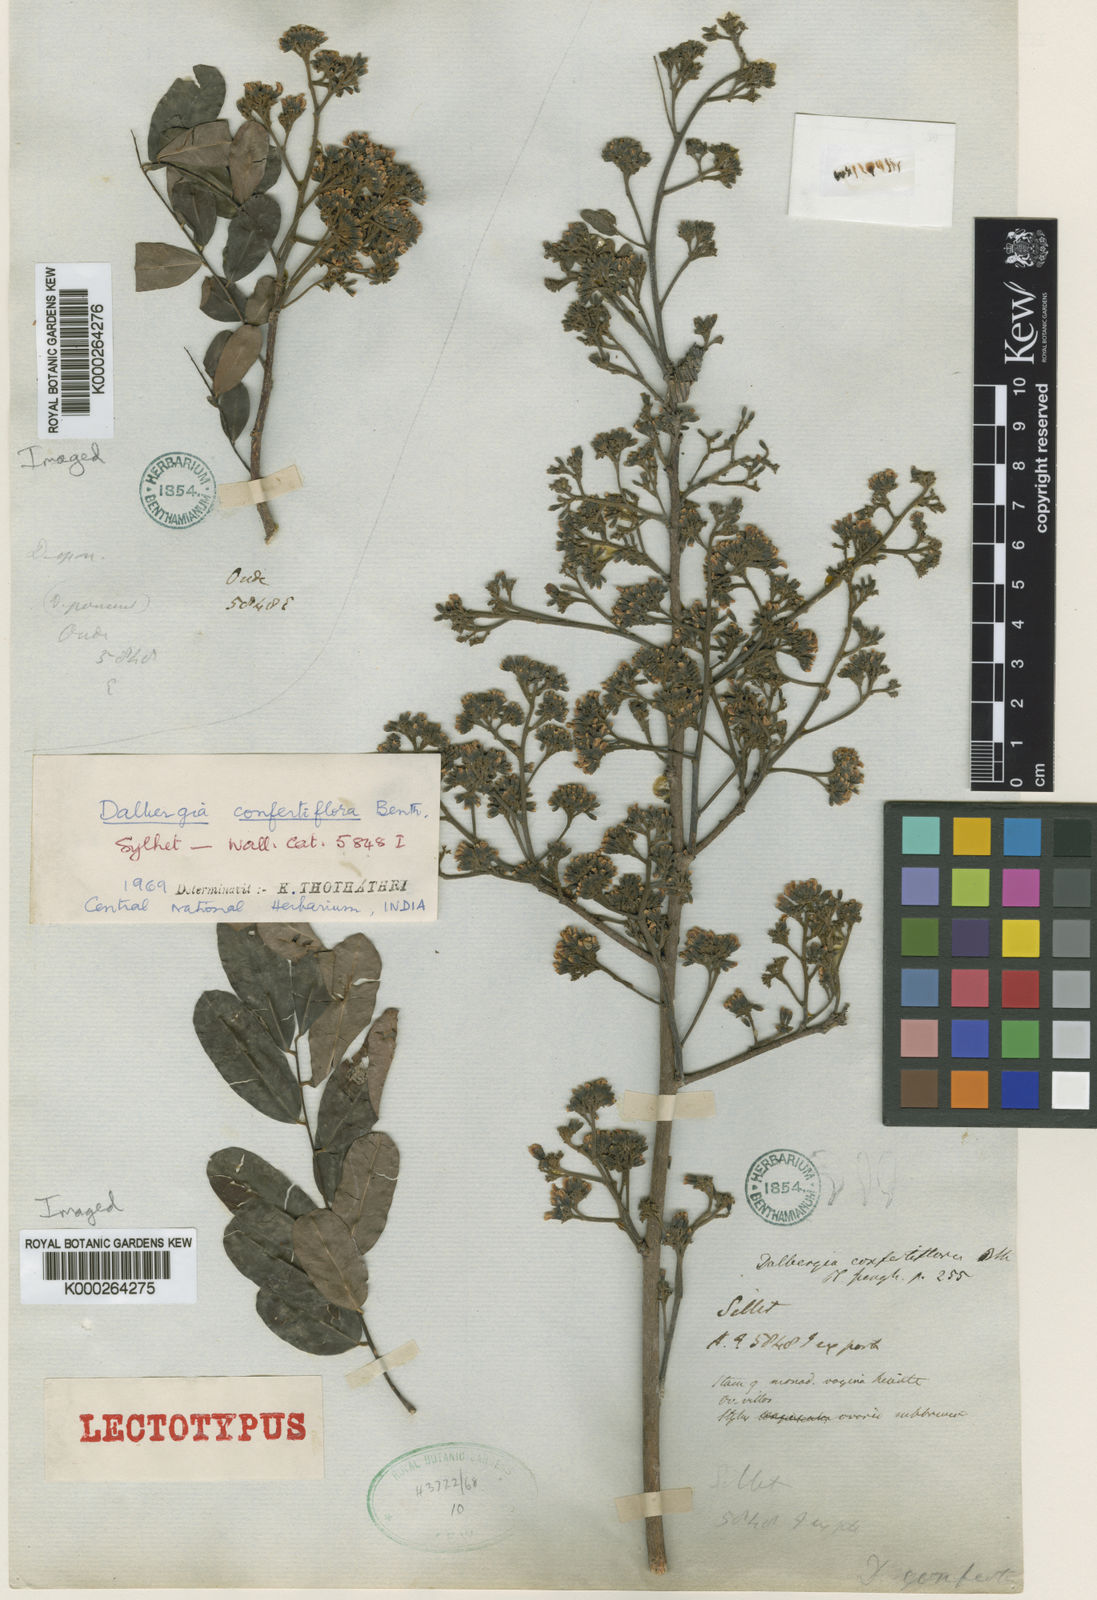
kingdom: Plantae
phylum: Tracheophyta
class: Magnoliopsida
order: Fabales
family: Fabaceae
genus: Dalbergia
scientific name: Dalbergia confertiflora
